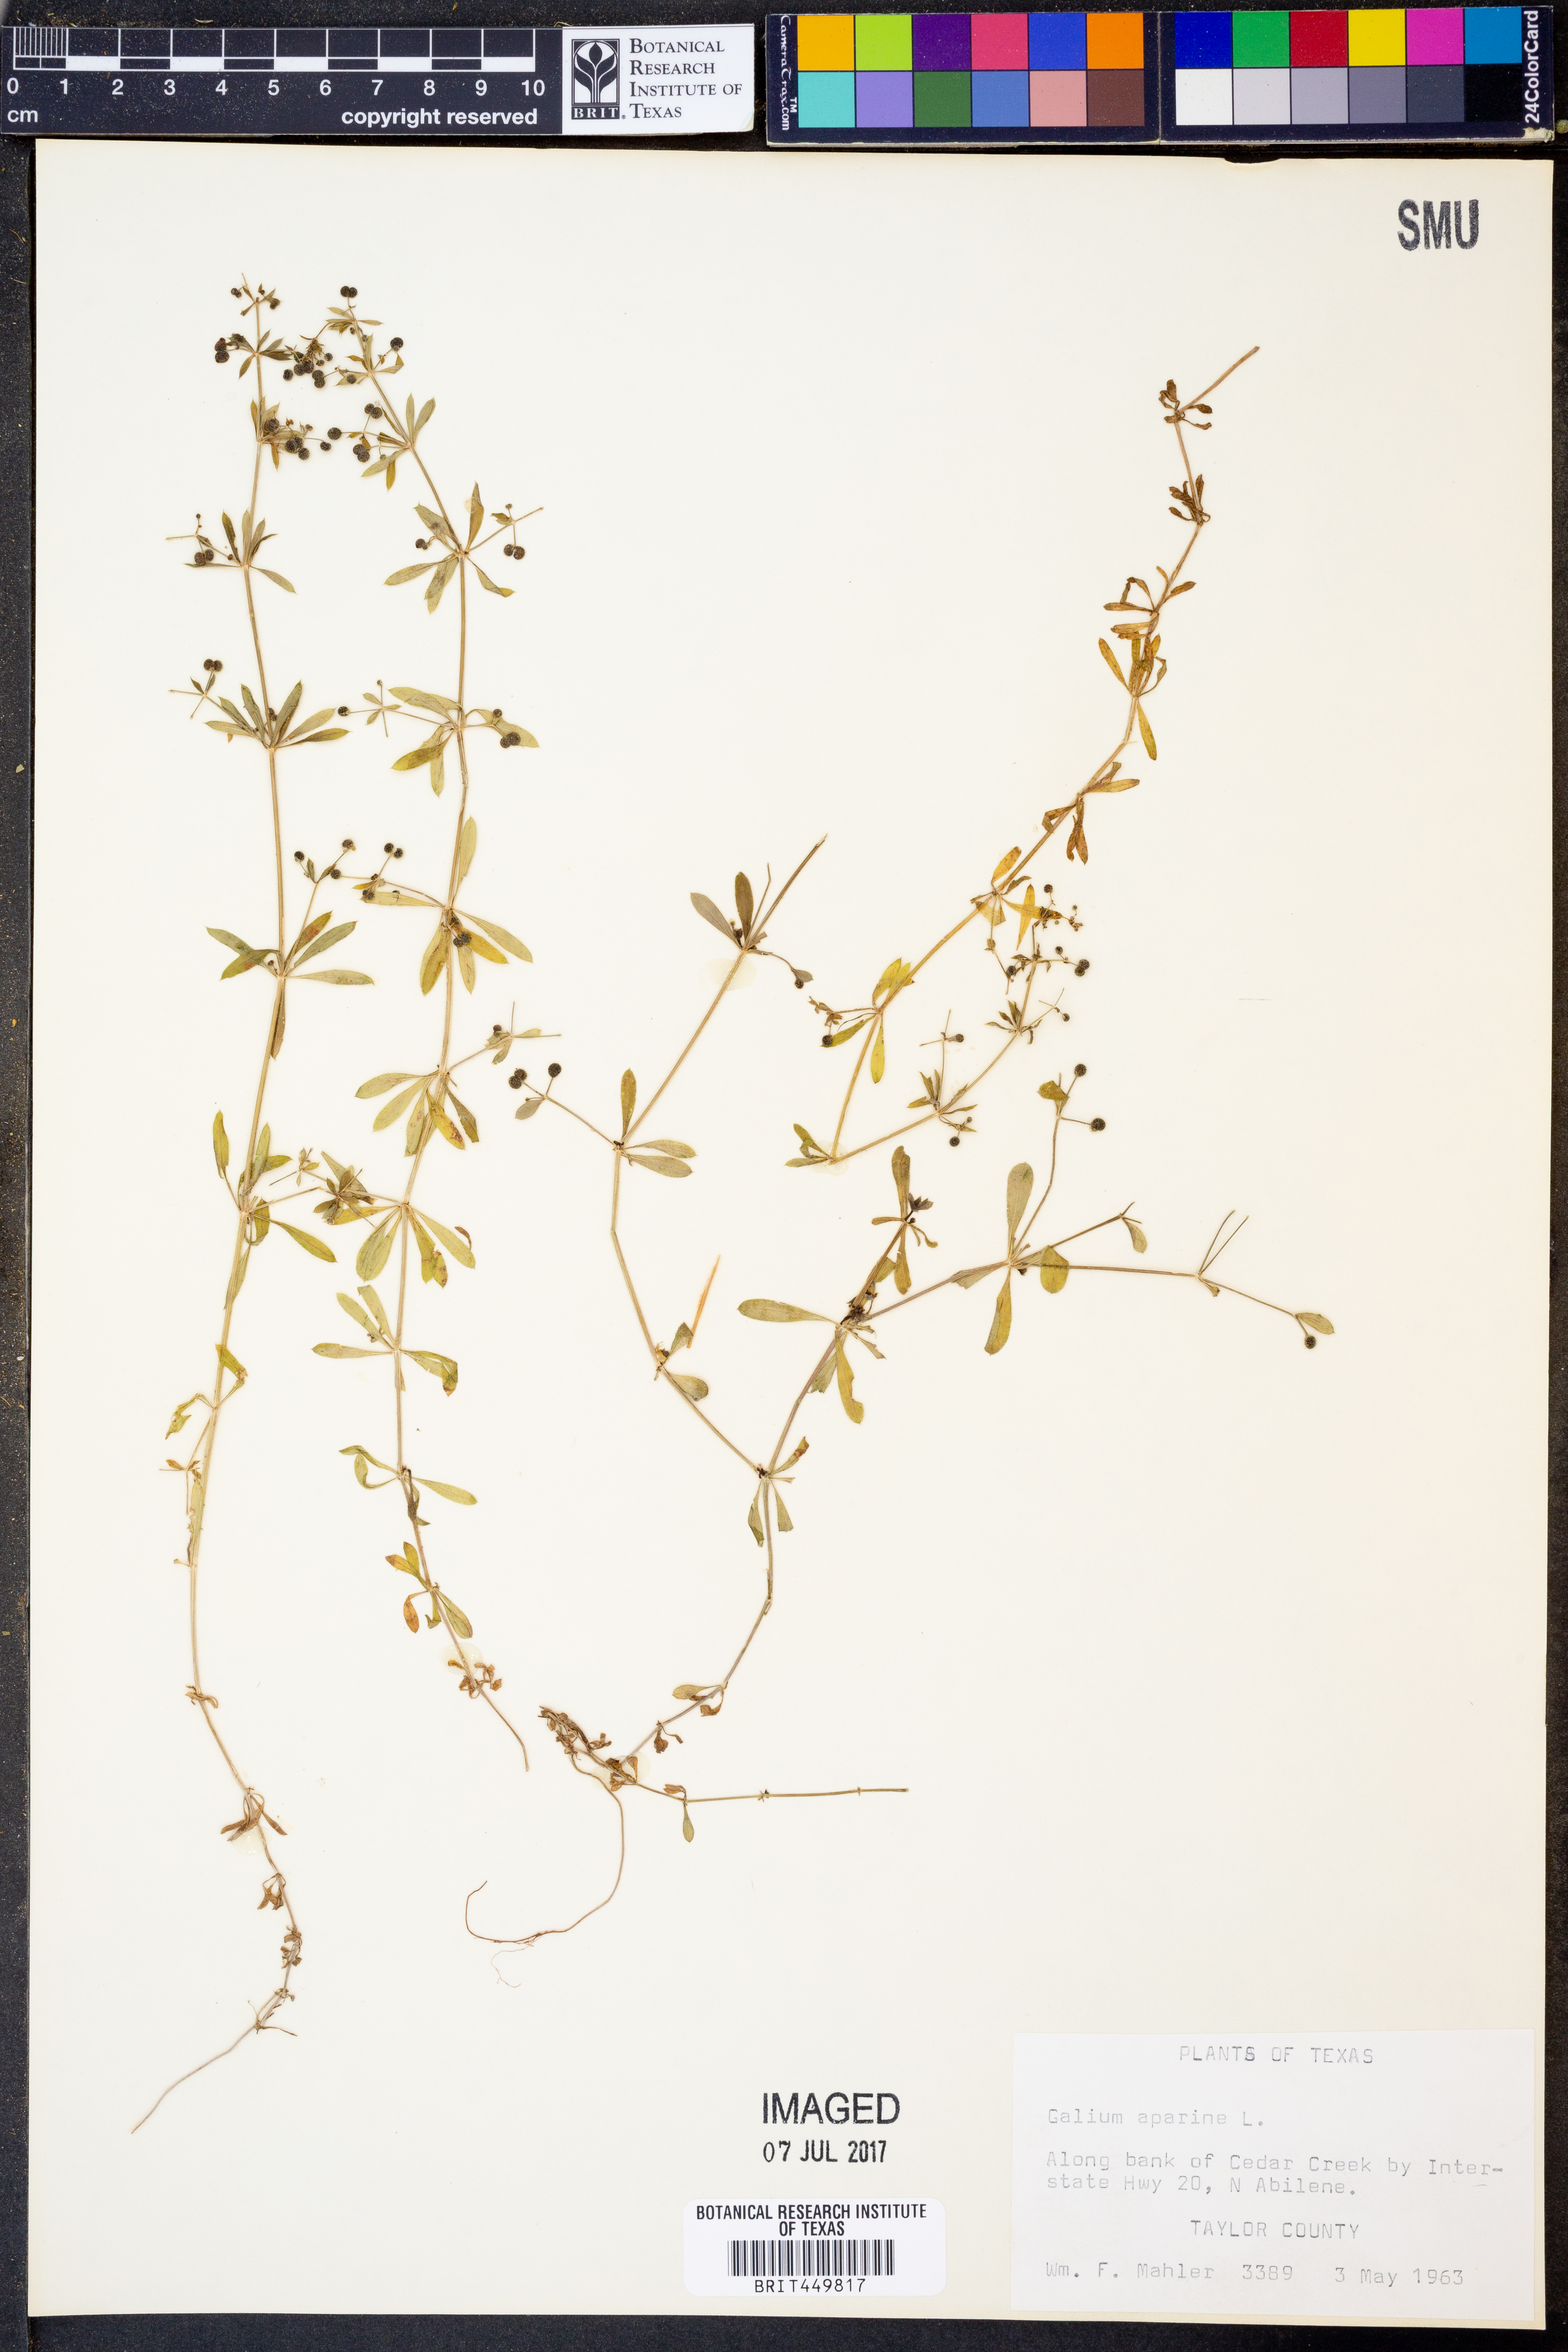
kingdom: Plantae
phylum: Tracheophyta
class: Magnoliopsida
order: Gentianales
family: Rubiaceae
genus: Galium
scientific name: Galium aparine
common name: Cleavers
